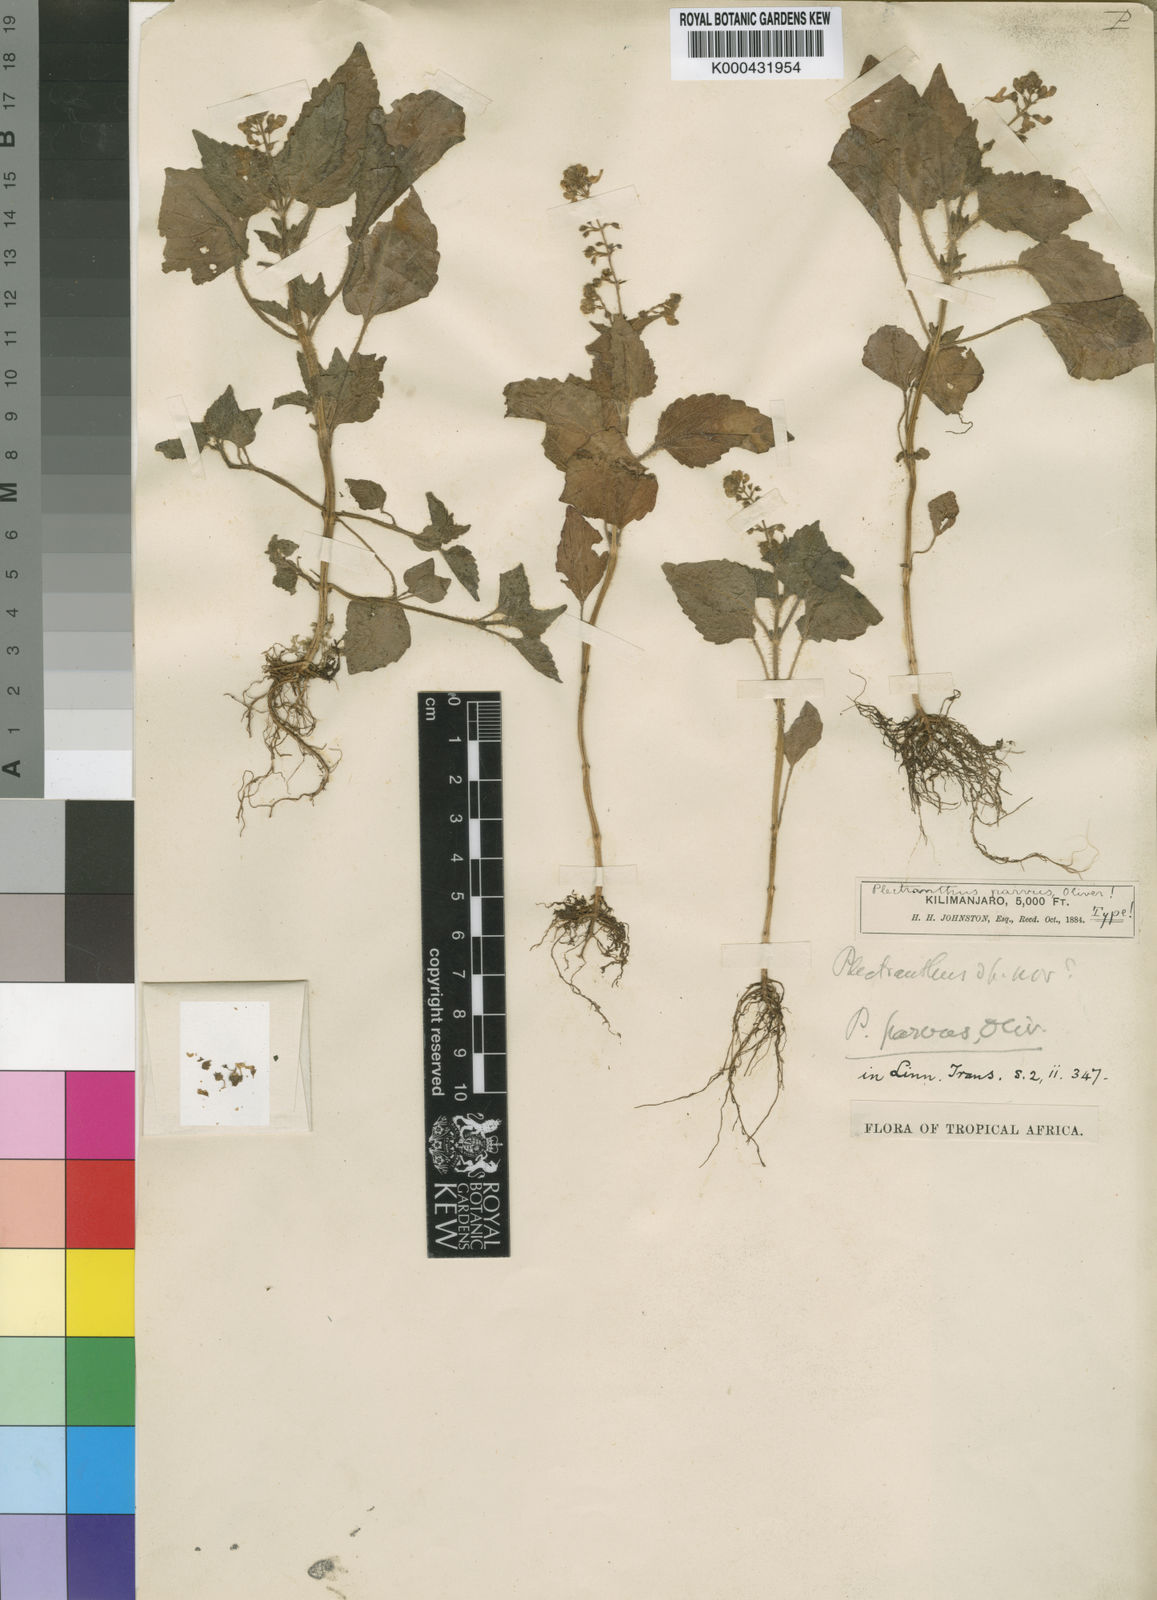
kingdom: Plantae
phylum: Tracheophyta
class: Magnoliopsida
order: Lamiales
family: Lamiaceae
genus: Equilabium
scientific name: Equilabium parvum
